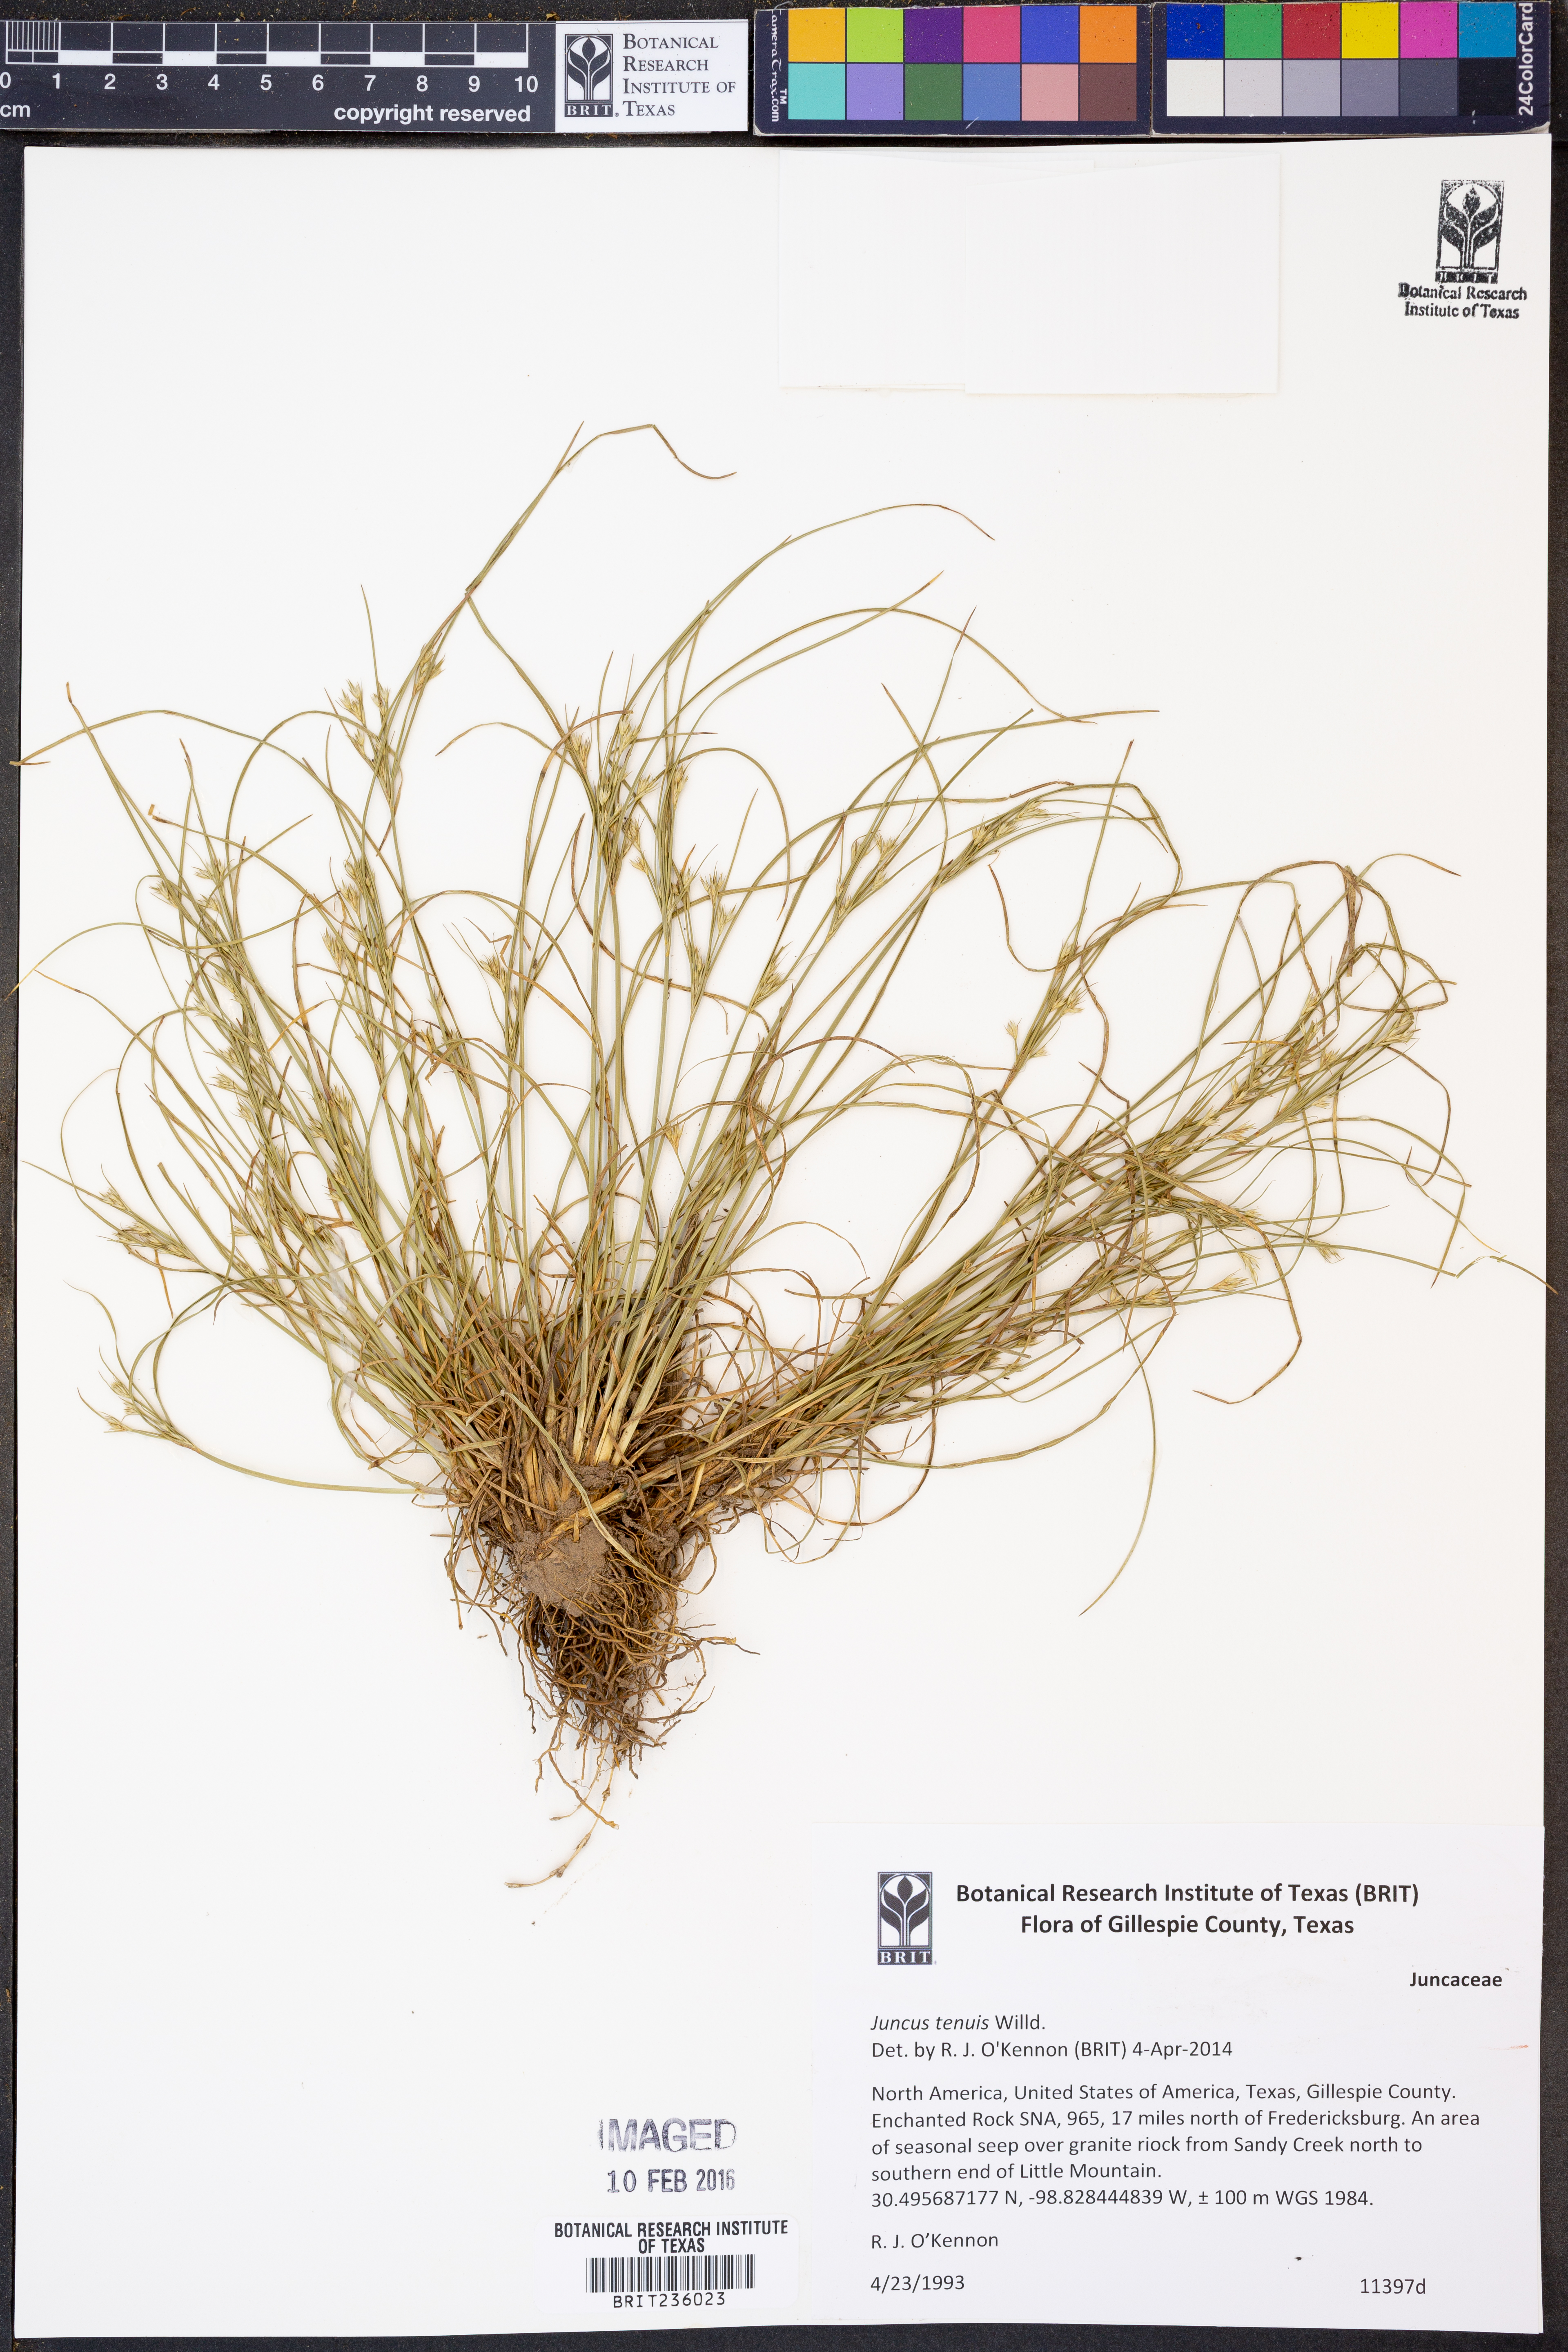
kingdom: Plantae
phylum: Tracheophyta
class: Liliopsida
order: Poales
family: Juncaceae
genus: Juncus
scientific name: Juncus tenuis
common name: Slender rush
